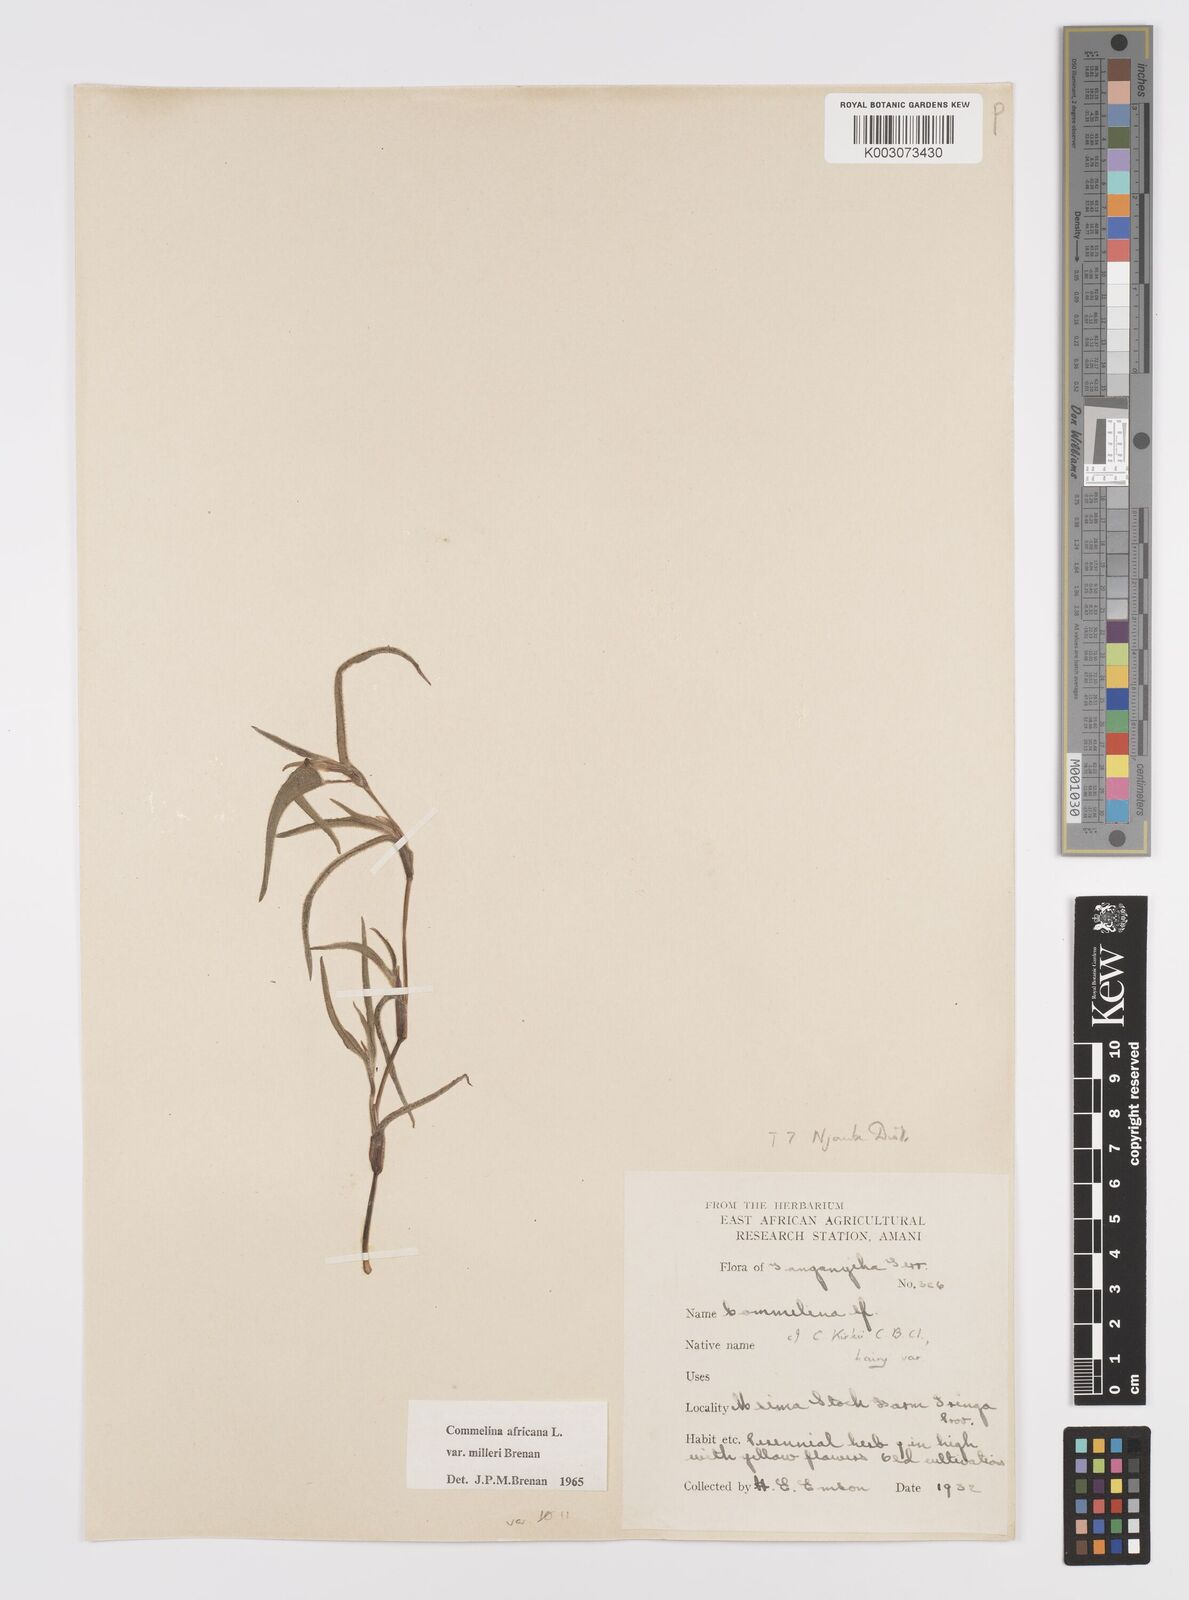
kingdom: Plantae
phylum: Tracheophyta
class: Liliopsida
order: Commelinales
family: Commelinaceae
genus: Commelina
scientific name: Commelina africana
